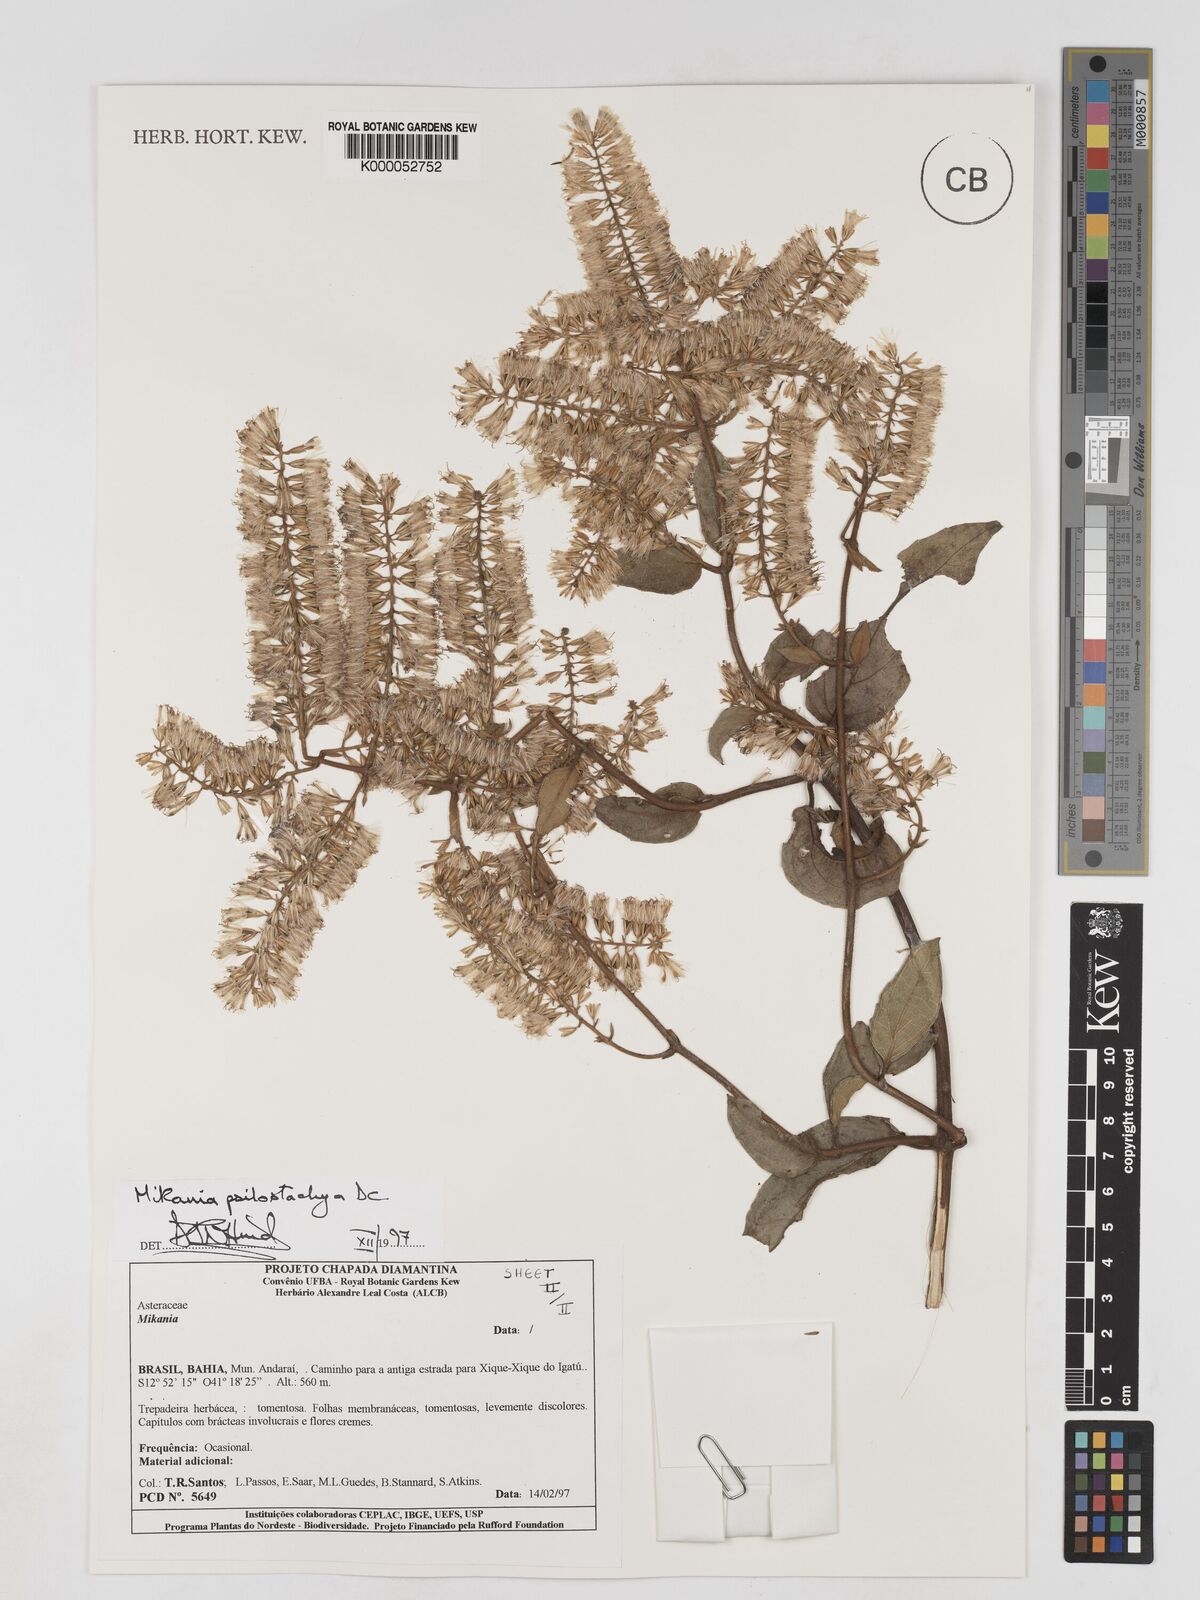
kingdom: Plantae
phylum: Tracheophyta
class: Magnoliopsida
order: Asterales
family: Asteraceae
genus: Mikania
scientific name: Mikania psilostachya
